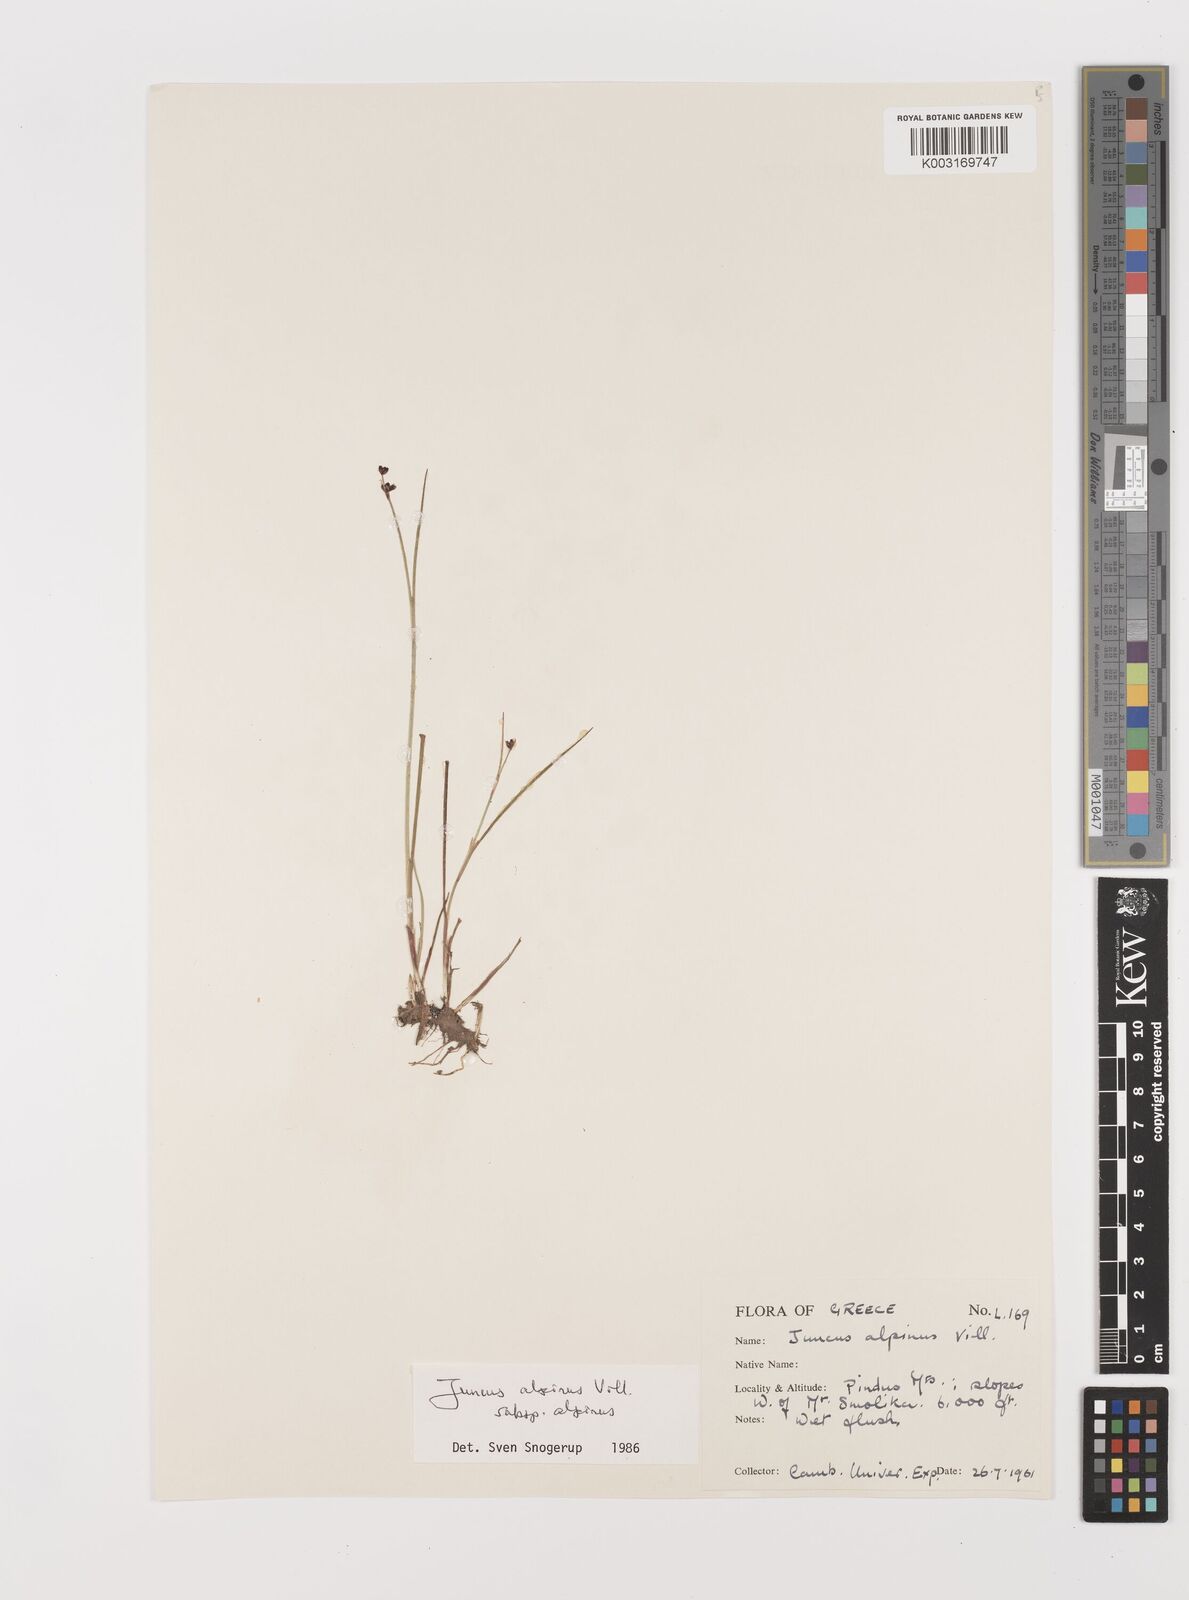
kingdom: Plantae
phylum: Tracheophyta
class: Liliopsida
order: Poales
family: Juncaceae
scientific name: Juncaceae
